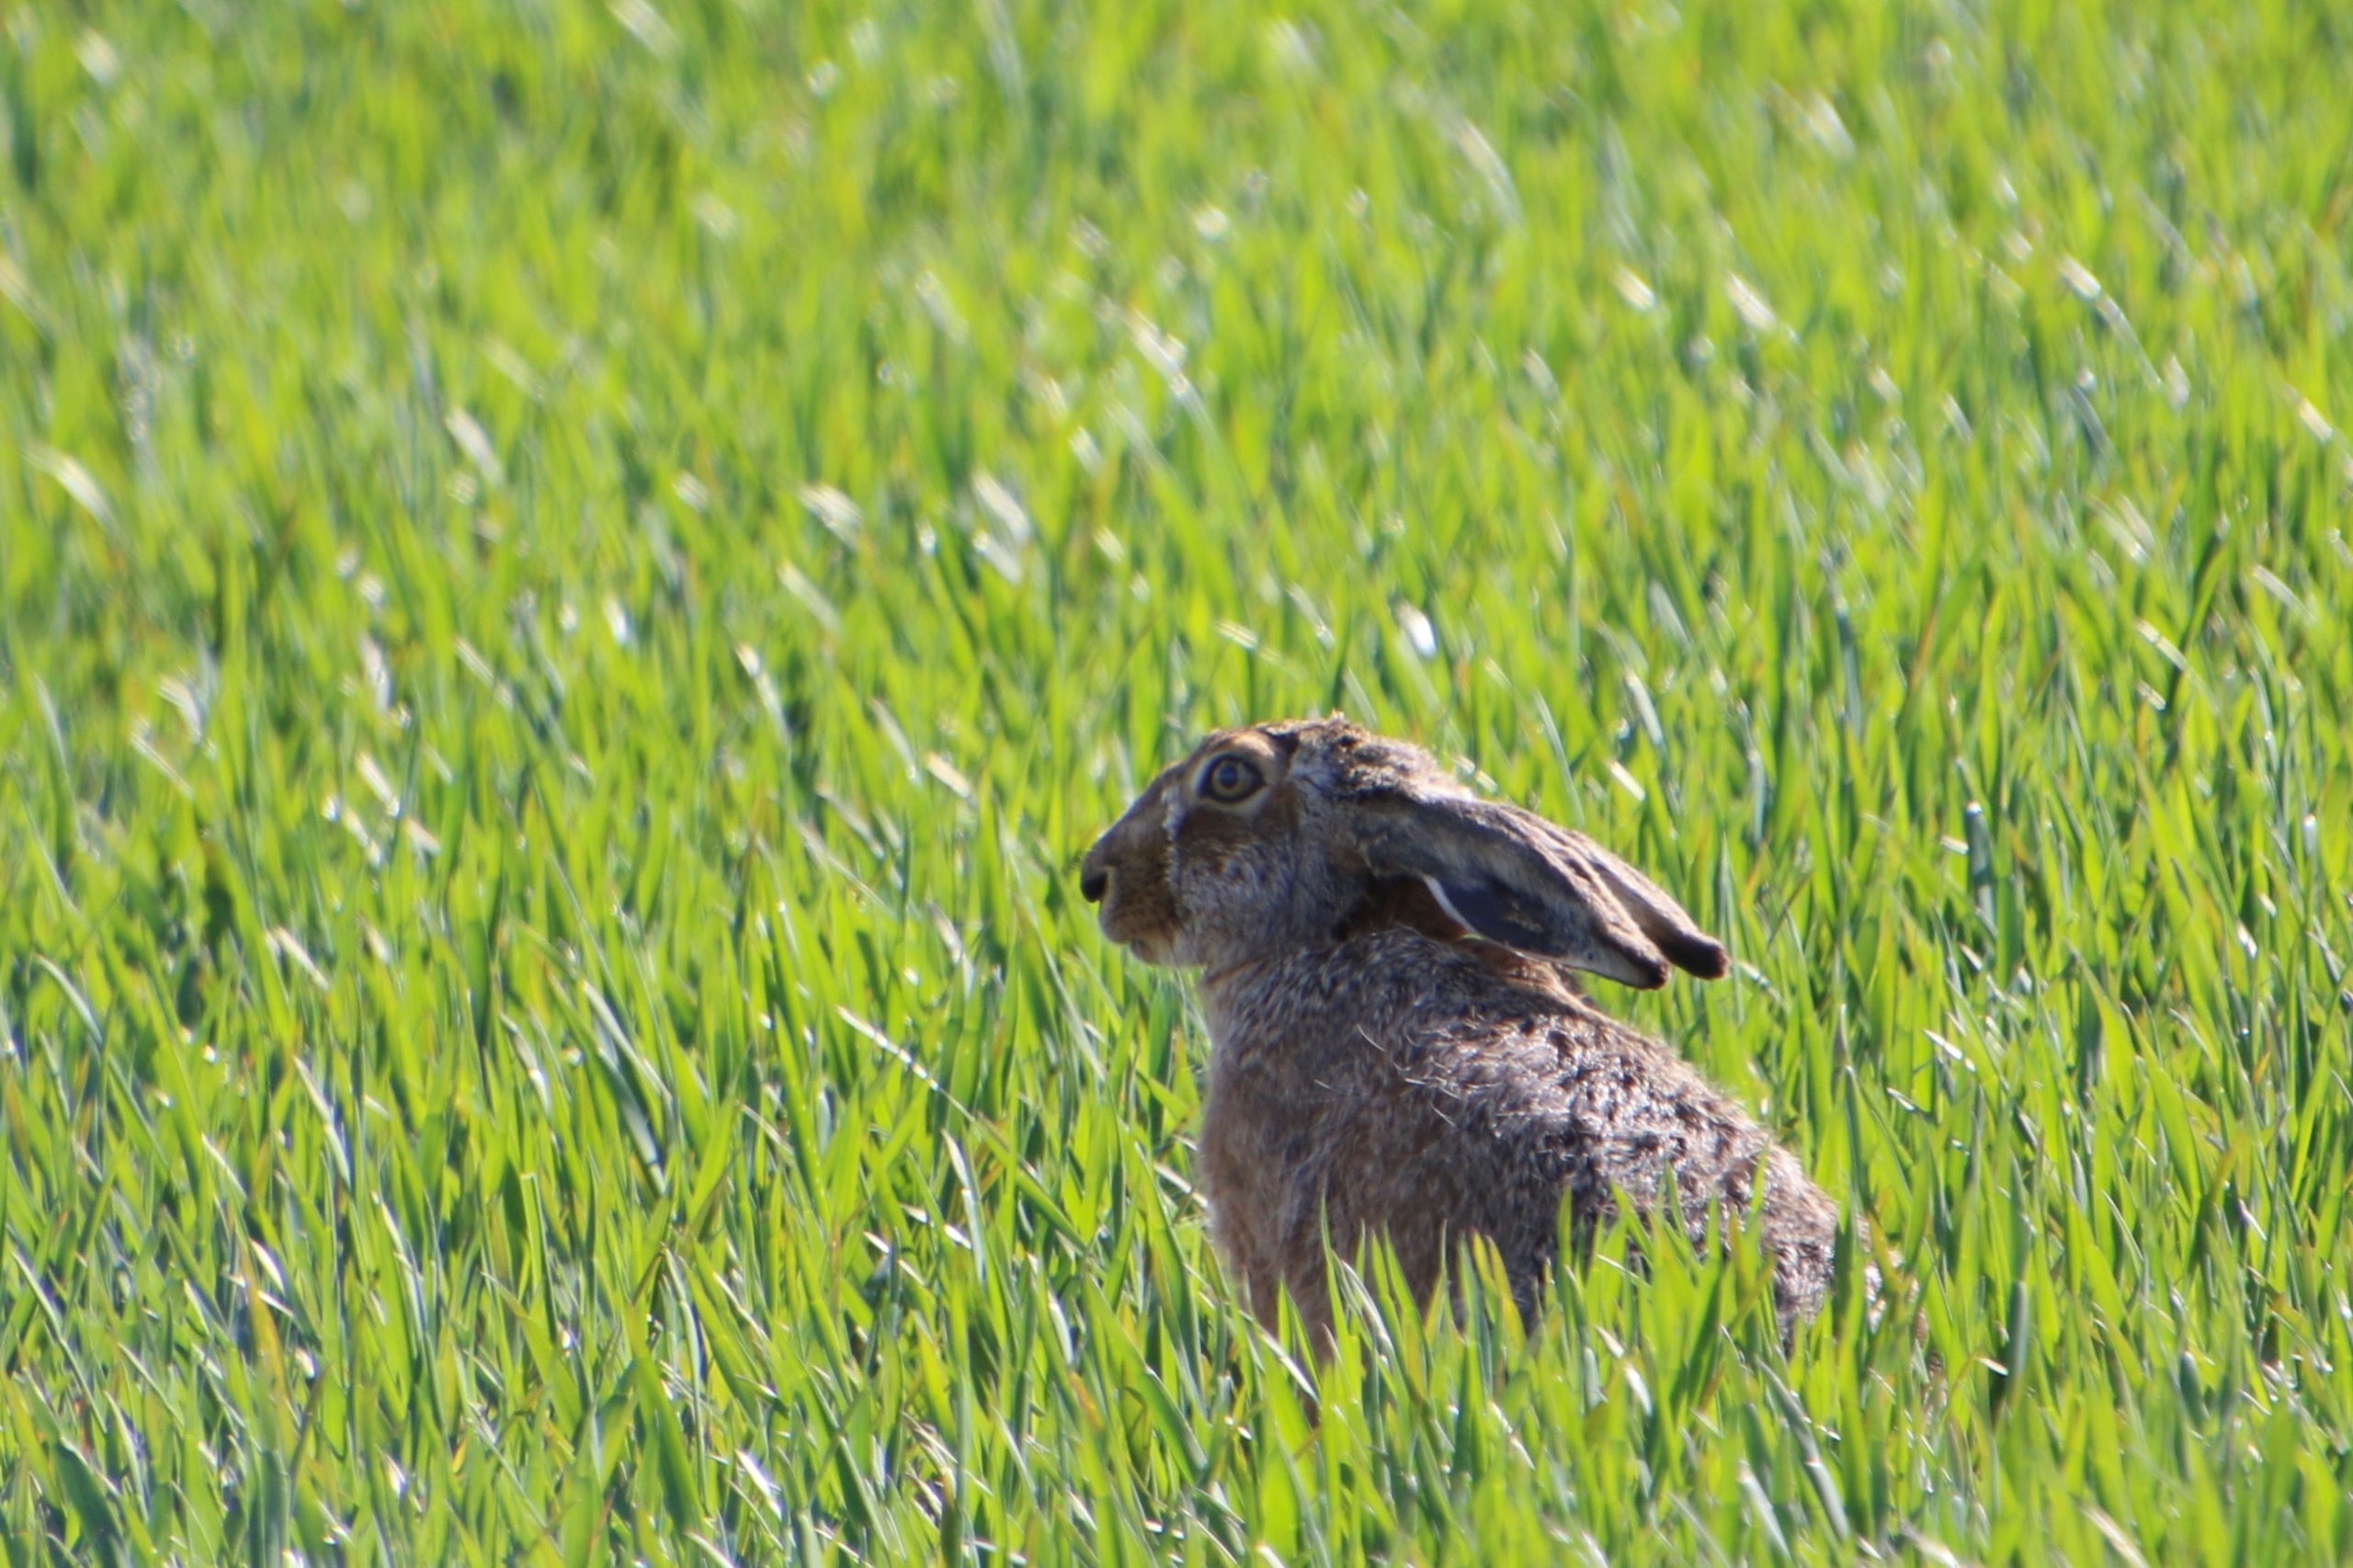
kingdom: Animalia
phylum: Chordata
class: Mammalia
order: Lagomorpha
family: Leporidae
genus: Lepus
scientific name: Lepus europaeus
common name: Hare
